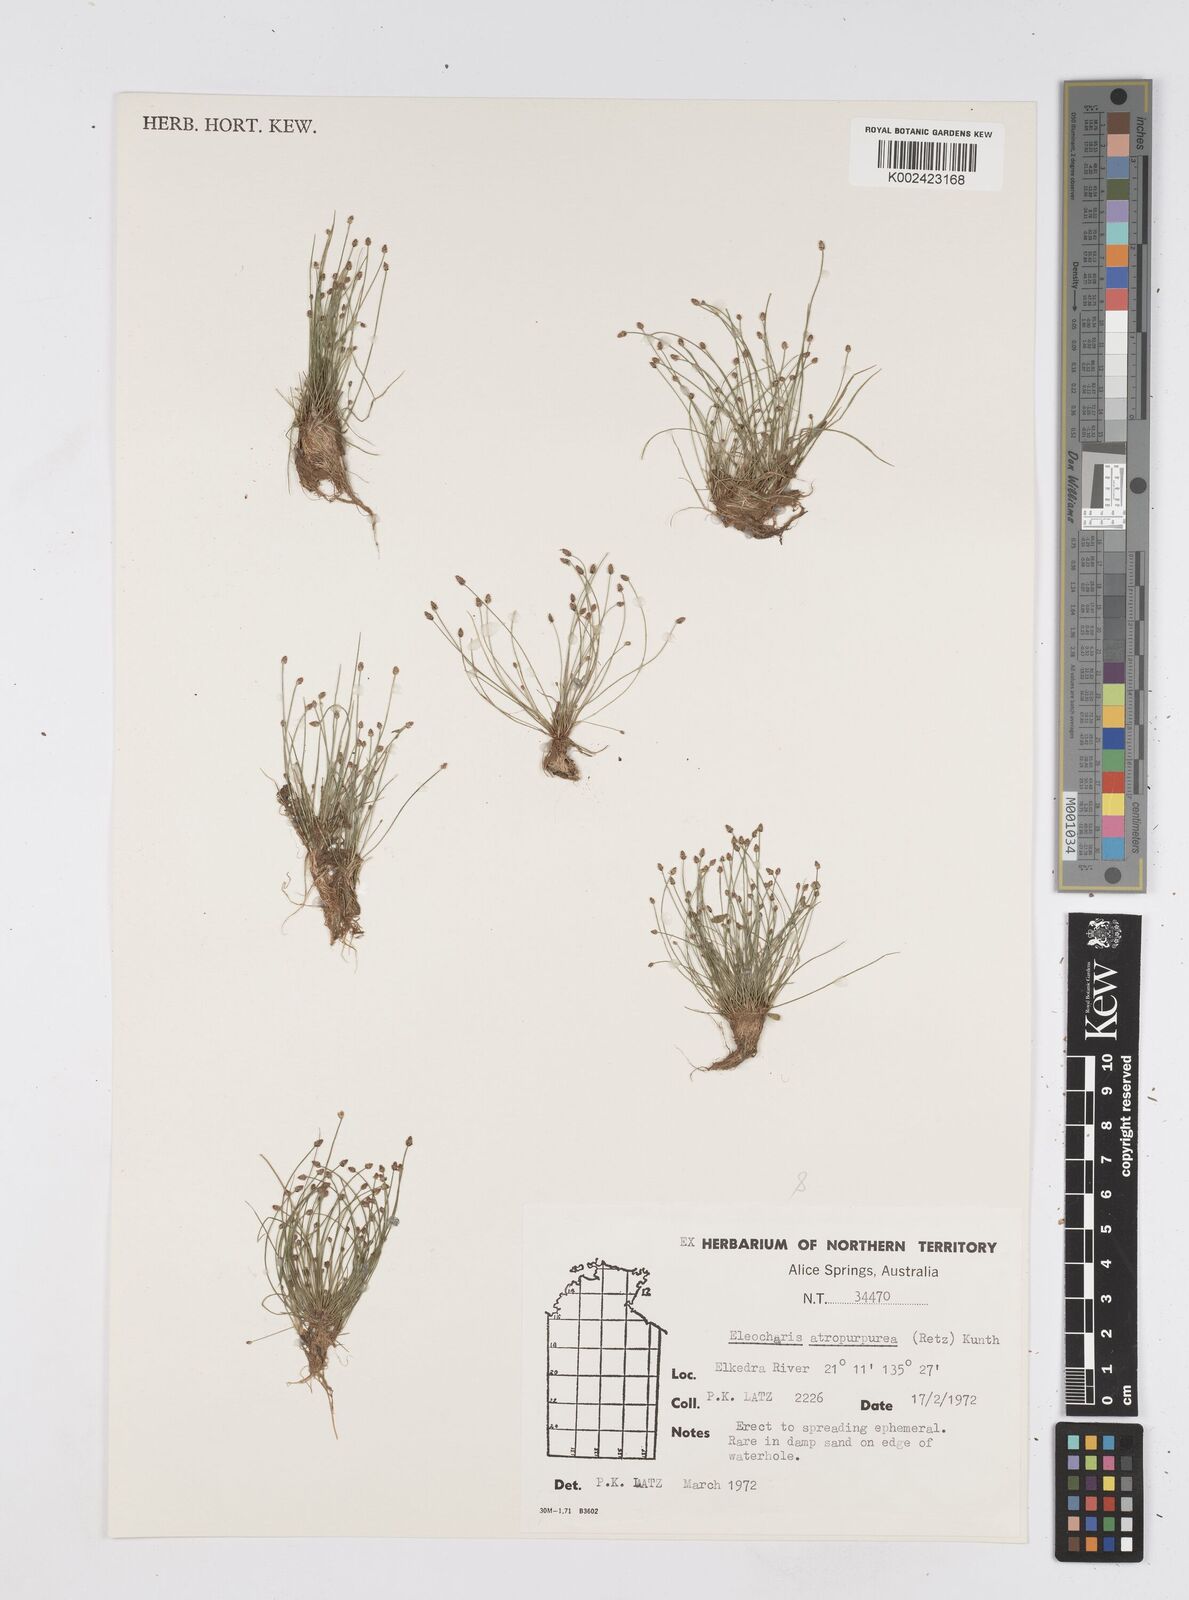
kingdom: Plantae
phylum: Tracheophyta
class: Liliopsida
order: Poales
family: Cyperaceae
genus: Eleocharis
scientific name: Eleocharis atropurpurea
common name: Purple spikerush
